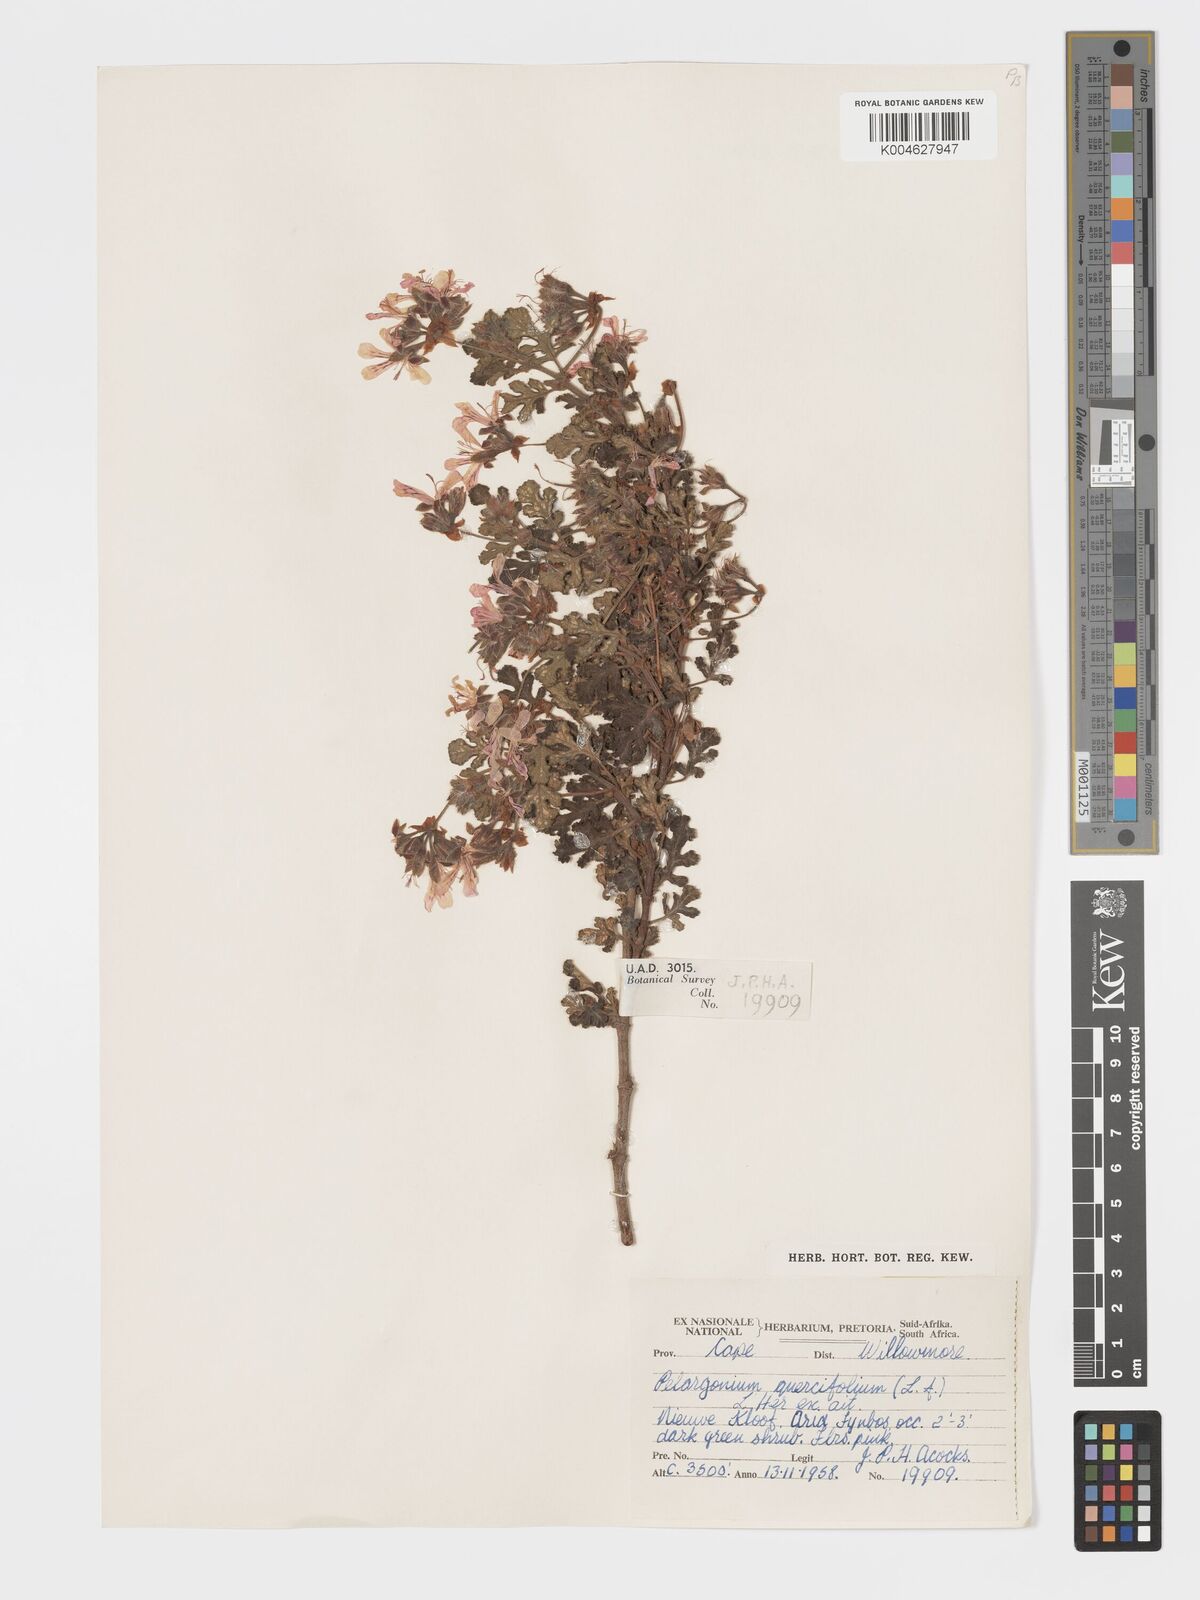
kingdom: Plantae
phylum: Tracheophyta
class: Magnoliopsida
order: Geraniales
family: Geraniaceae
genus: Pelargonium
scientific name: Pelargonium quercifolium
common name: Oakleaf geranium
